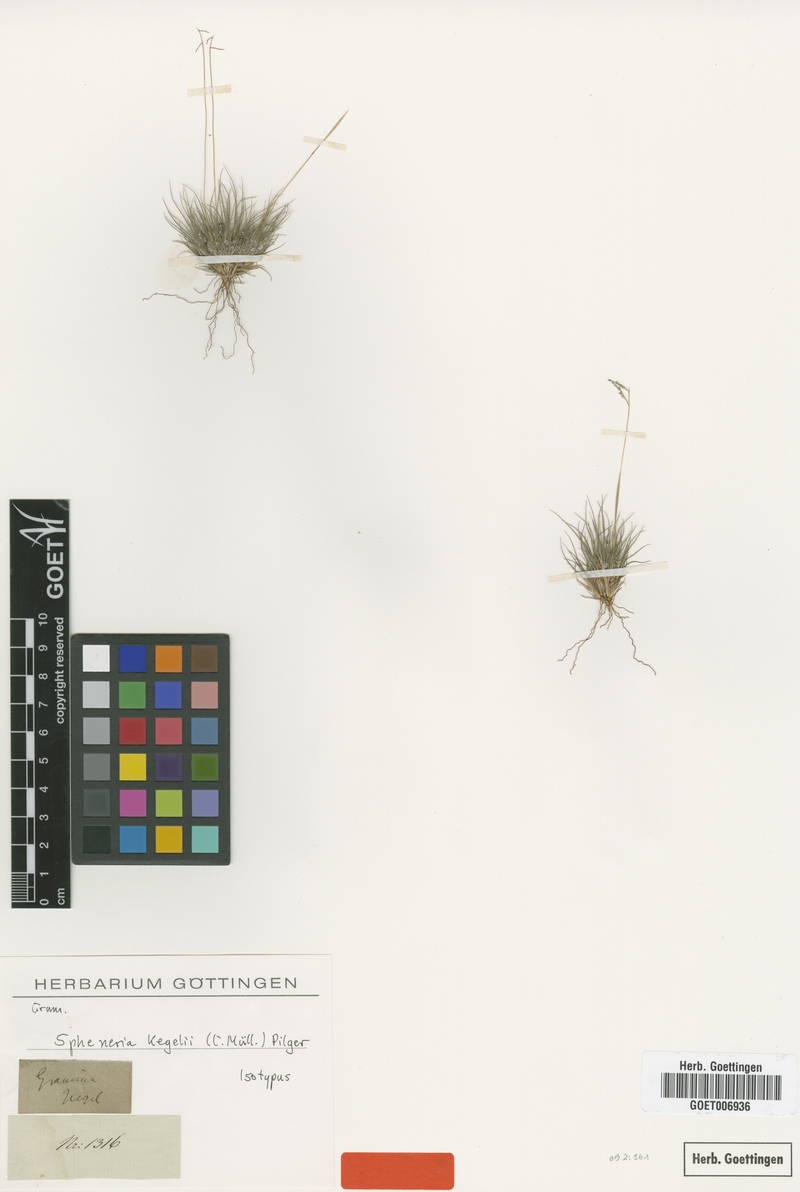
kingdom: Plantae
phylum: Tracheophyta
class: Liliopsida
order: Poales
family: Poaceae
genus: Spheneria
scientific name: Spheneria kegelii
